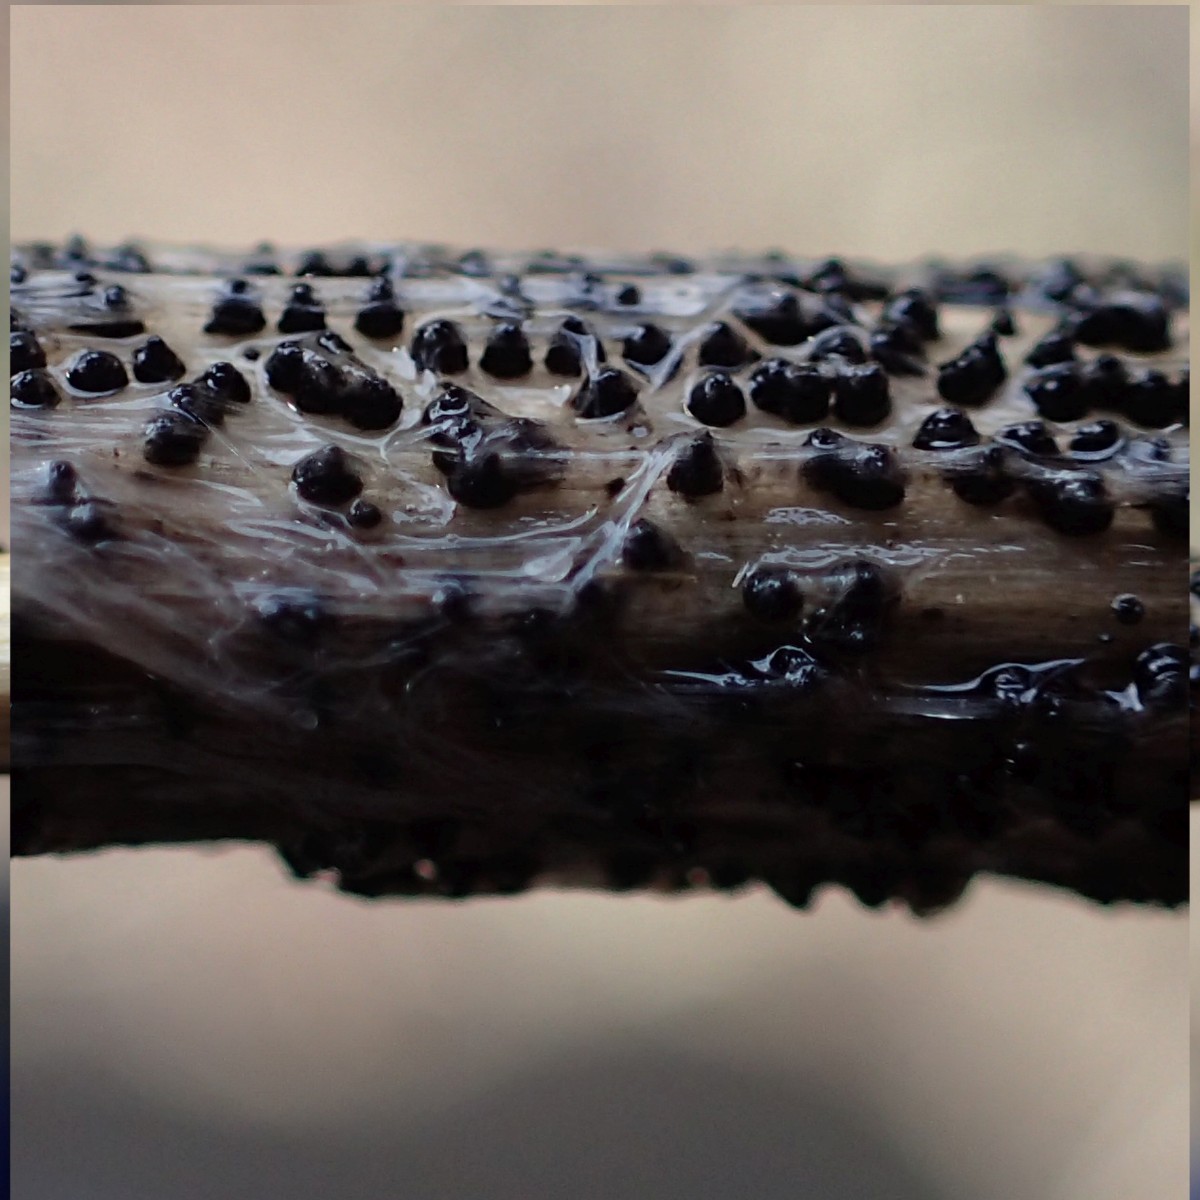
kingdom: Fungi
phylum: Ascomycota
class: Dothideomycetes
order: Pleosporales
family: Leptosphaeriaceae
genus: Leptosphaeria
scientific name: Leptosphaeria
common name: kulkegle
